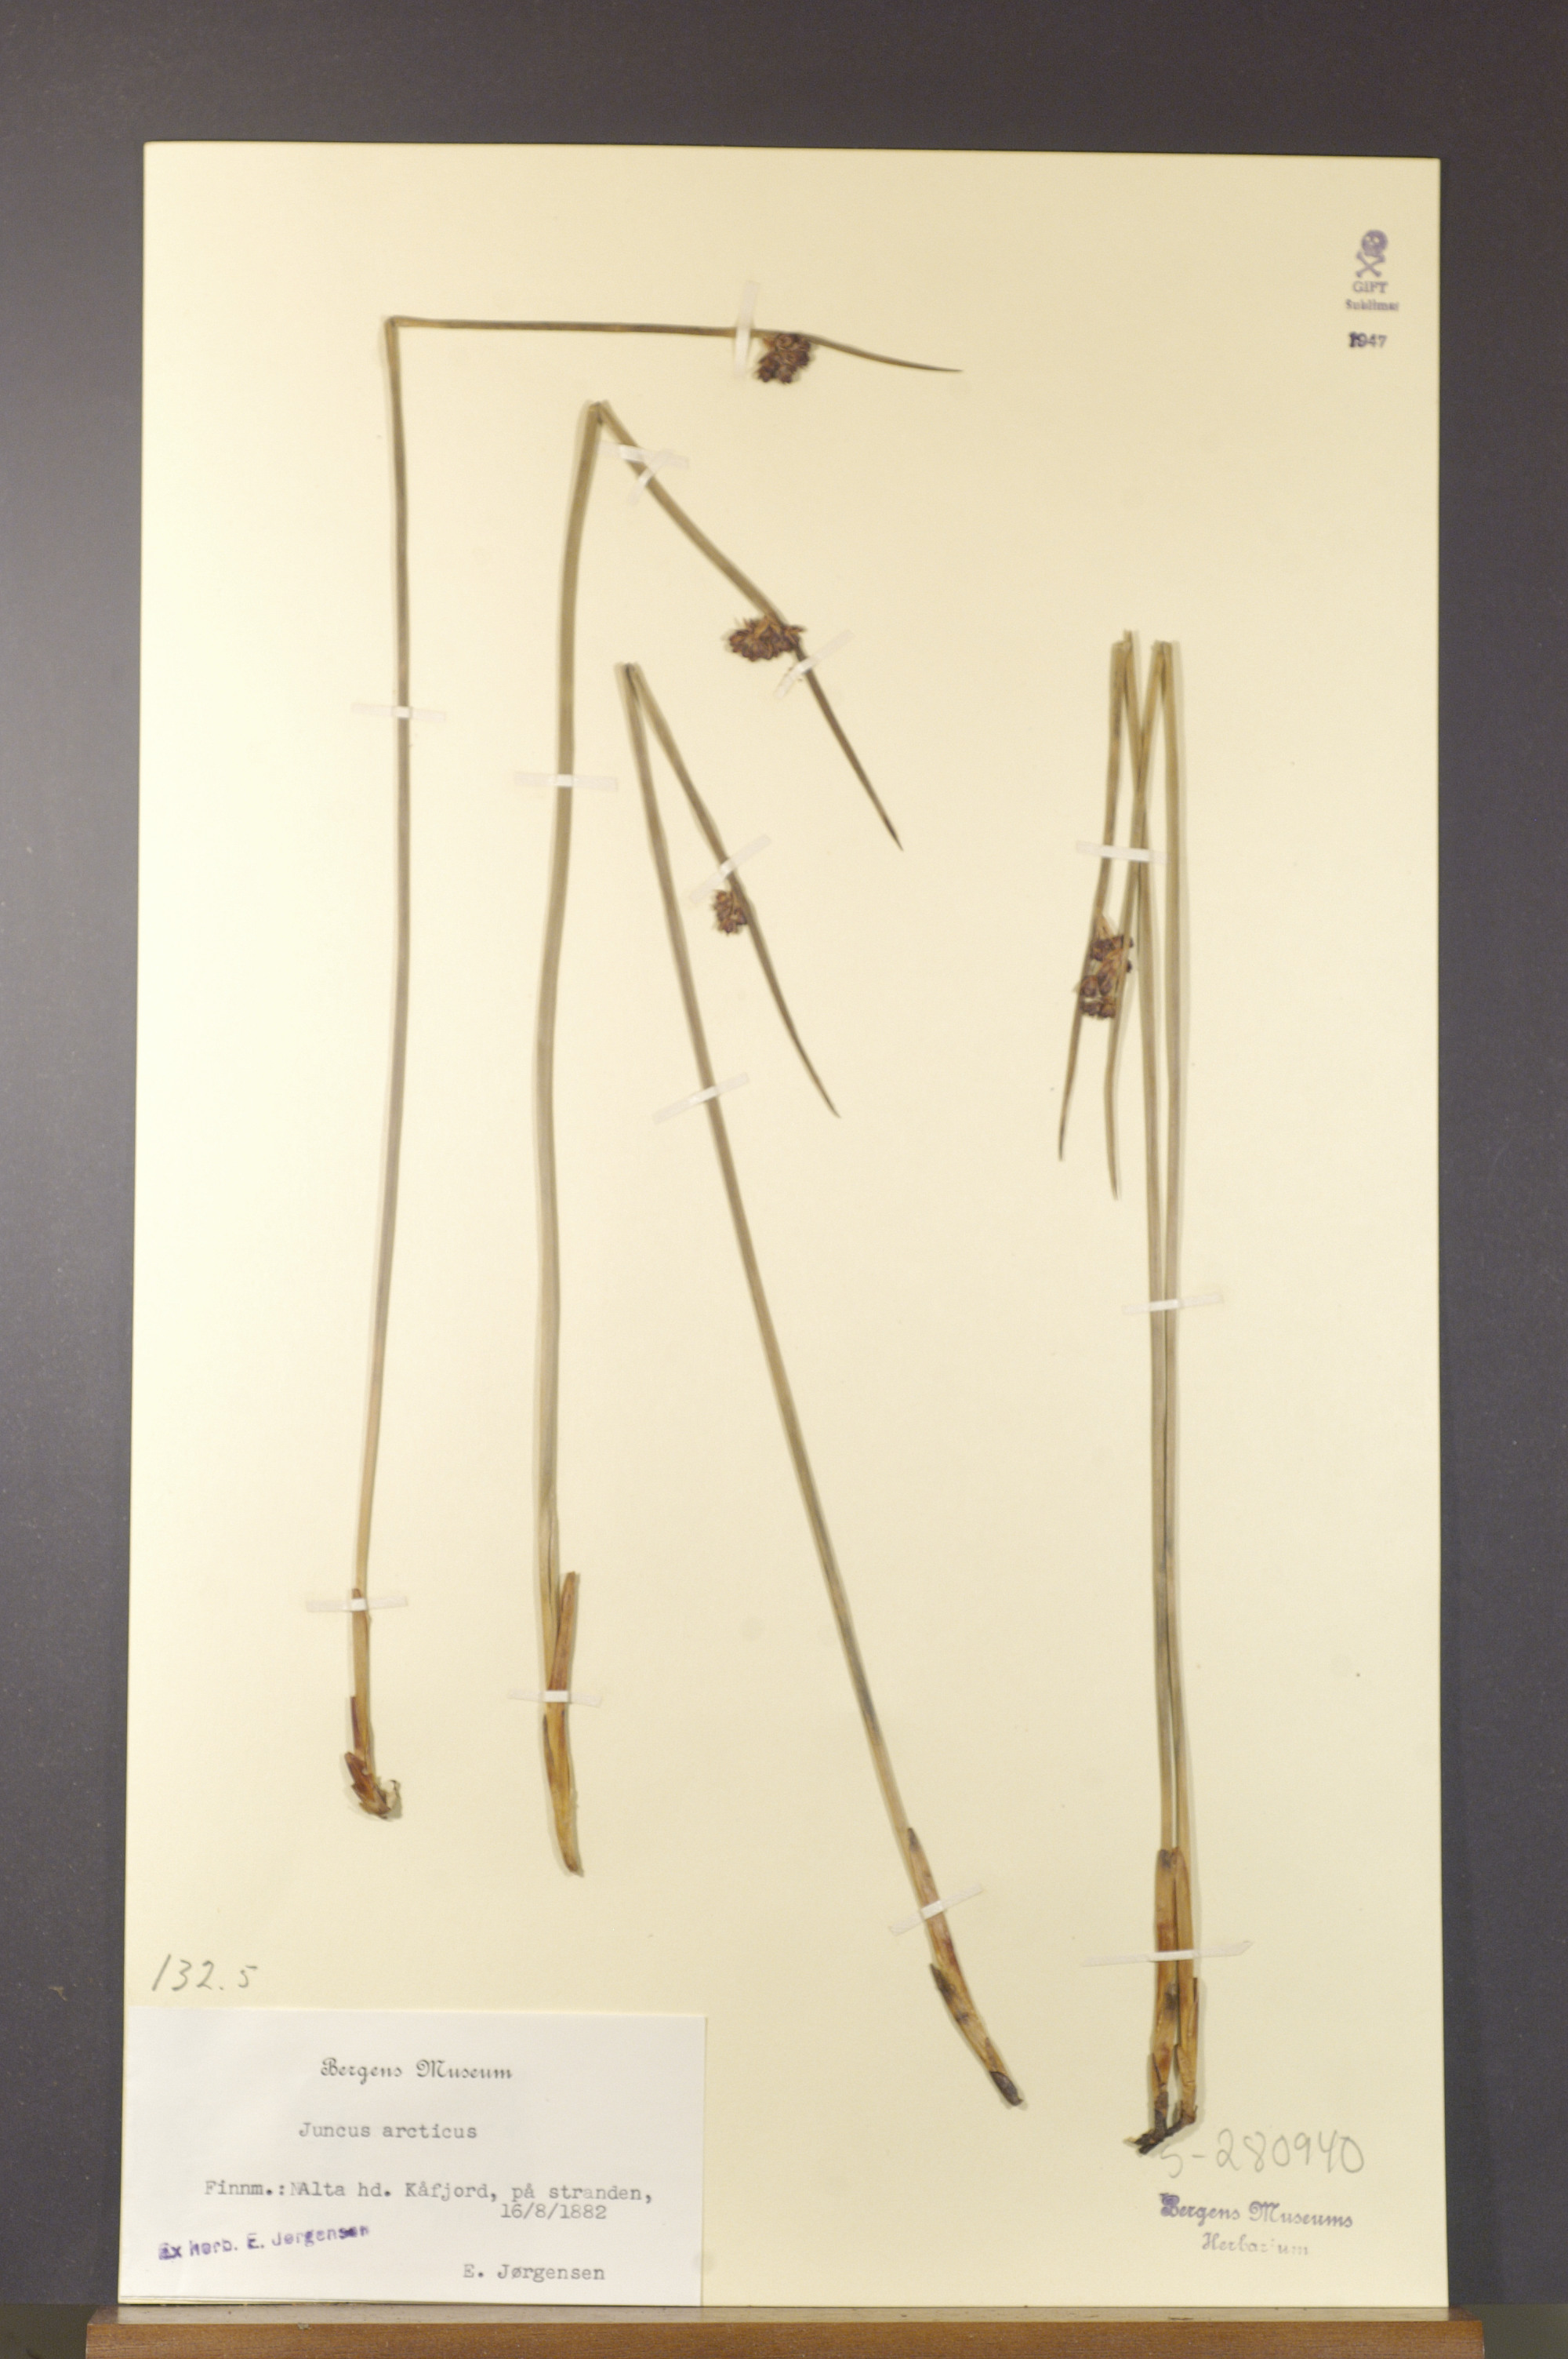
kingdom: Plantae
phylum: Tracheophyta
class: Liliopsida
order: Poales
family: Juncaceae
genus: Juncus
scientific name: Juncus arcticus
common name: Arctic rush
